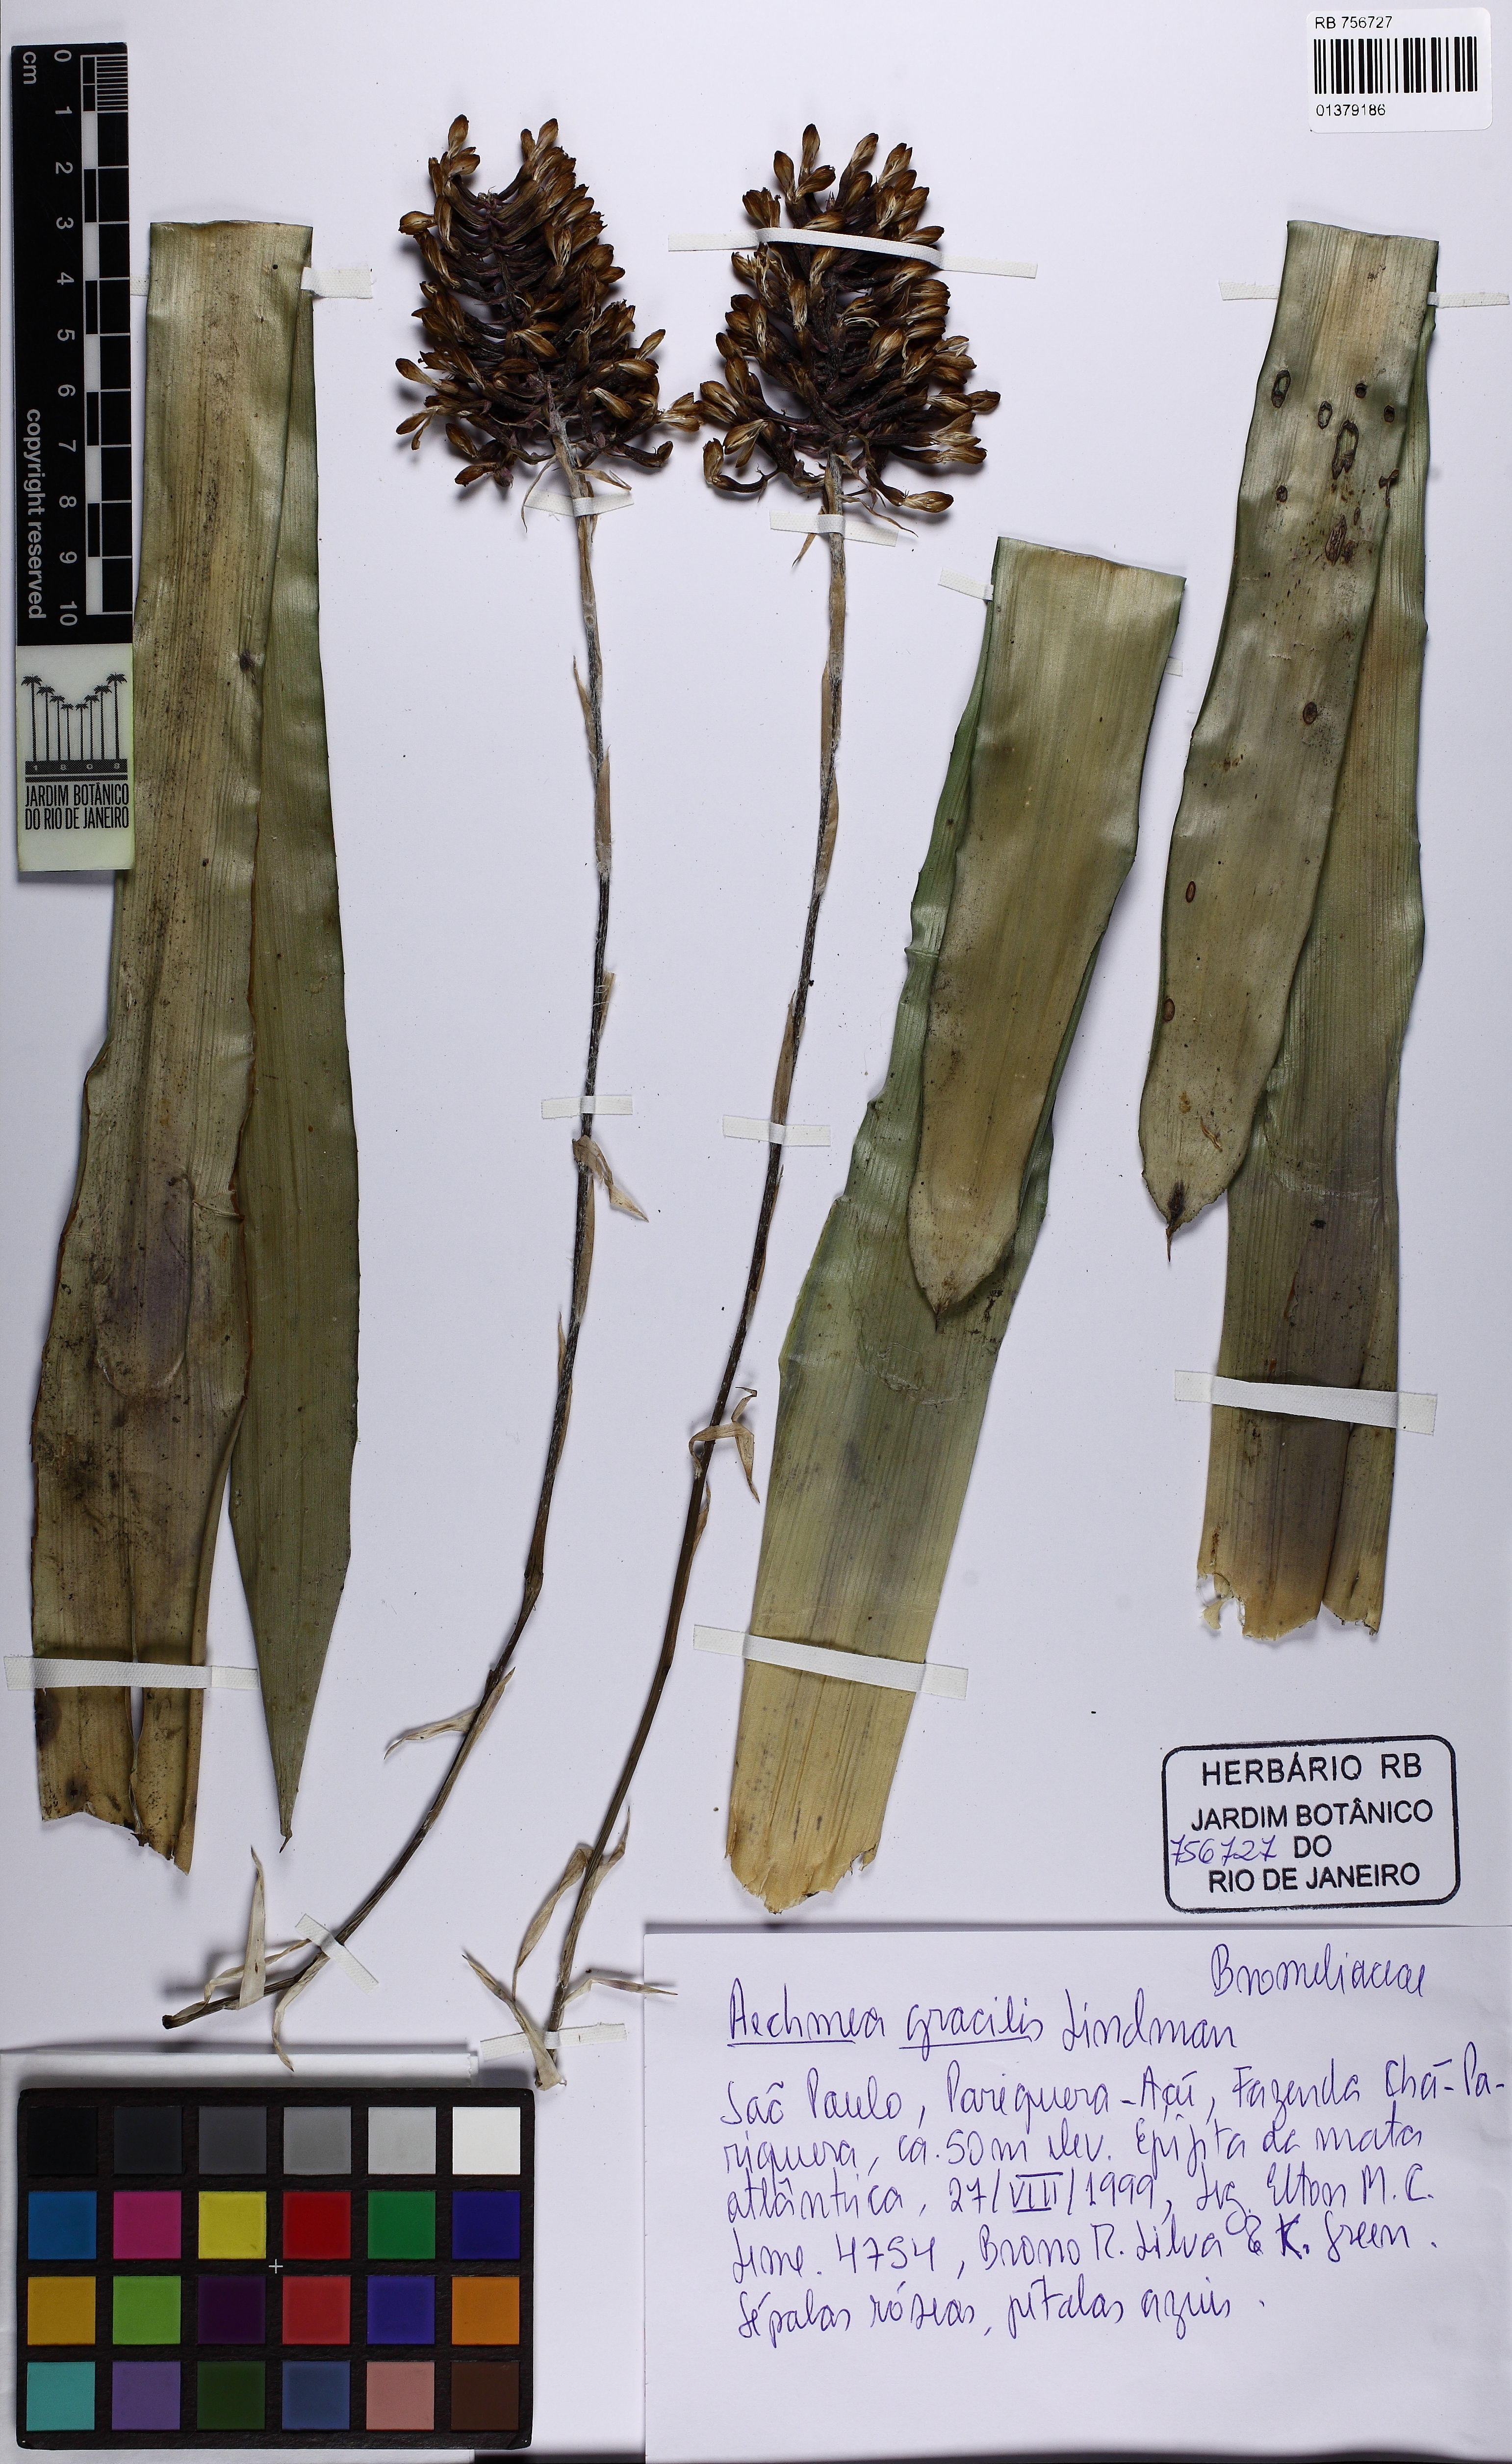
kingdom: Plantae
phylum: Tracheophyta
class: Liliopsida
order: Poales
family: Bromeliaceae
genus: Aechmea
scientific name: Aechmea gracilis
